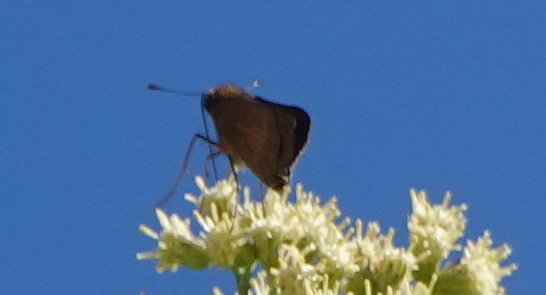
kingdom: Animalia
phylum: Arthropoda
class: Insecta
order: Lepidoptera
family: Hesperiidae
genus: Panoquina
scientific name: Panoquina ocola
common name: Ocola Skipper
